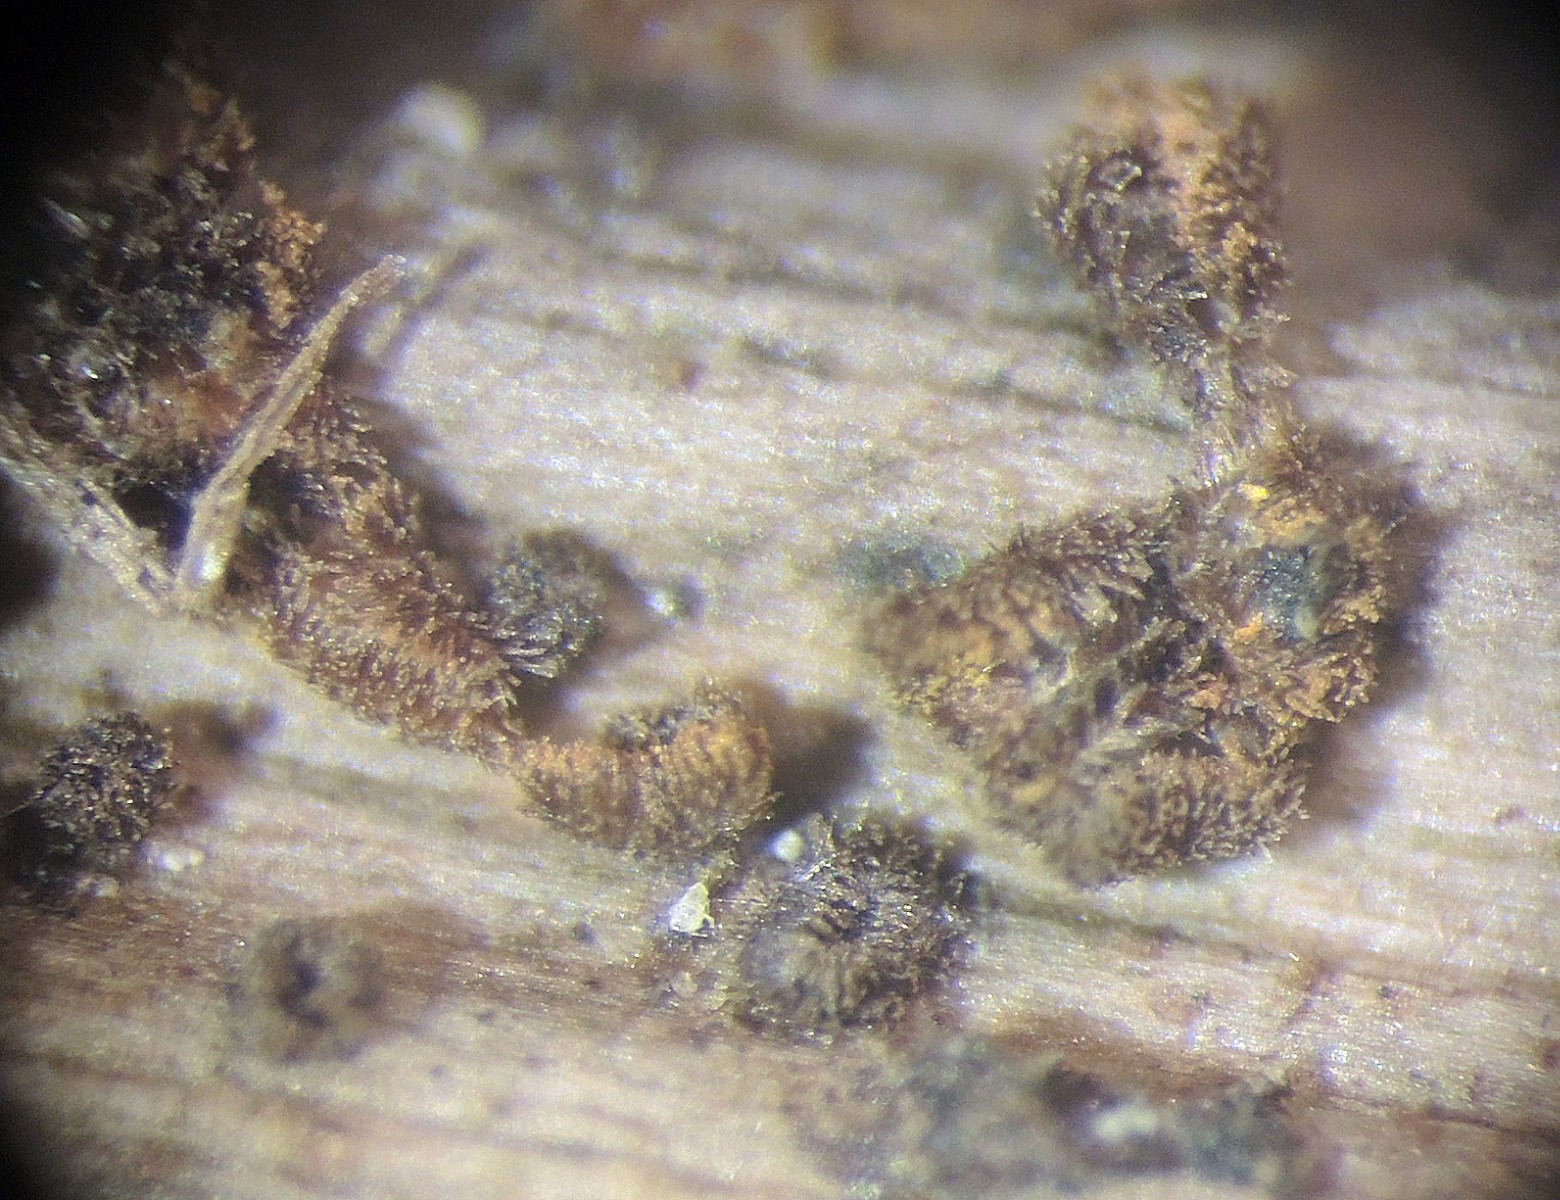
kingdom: Fungi
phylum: Ascomycota
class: Leotiomycetes
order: Helotiales
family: Solenopeziaceae
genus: Trichopezizella
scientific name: Trichopezizella rubroguttata
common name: ravhåret frynseskive
